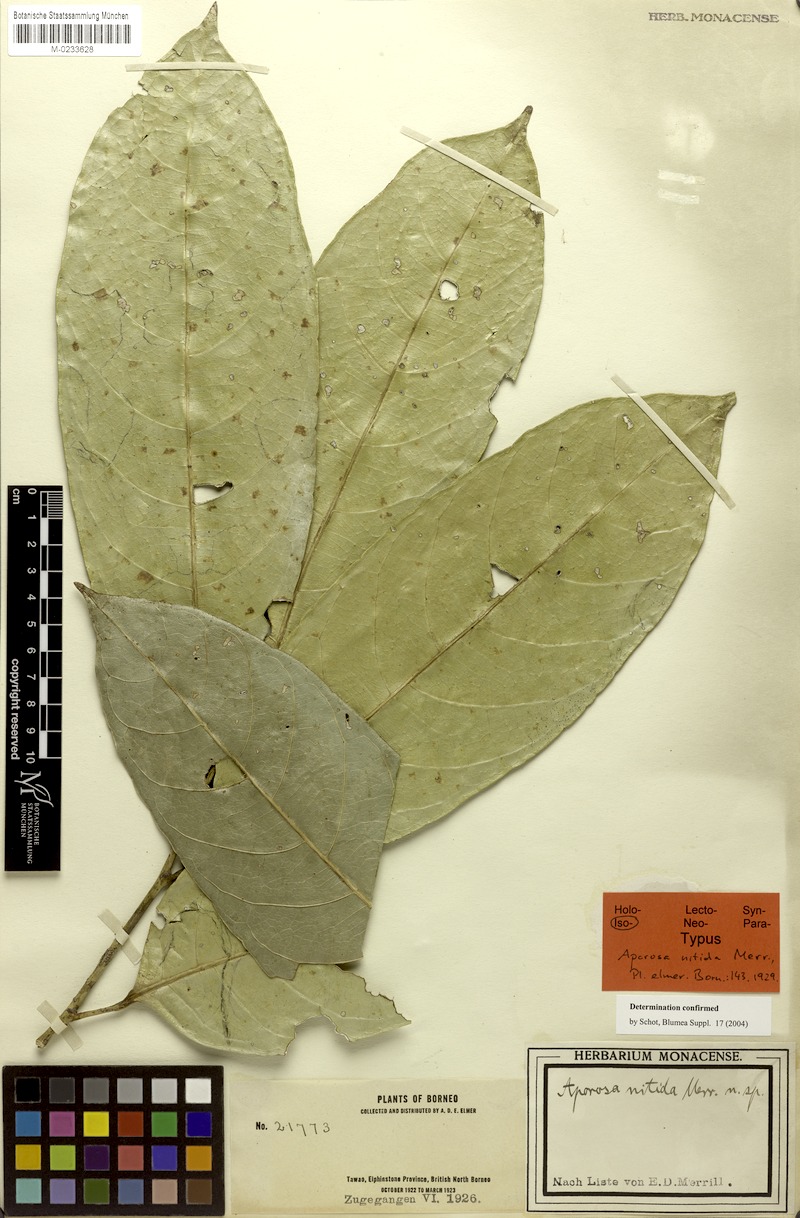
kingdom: Plantae
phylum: Tracheophyta
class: Magnoliopsida
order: Malpighiales
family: Phyllanthaceae
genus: Aporosa
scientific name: Aporosa nitida
